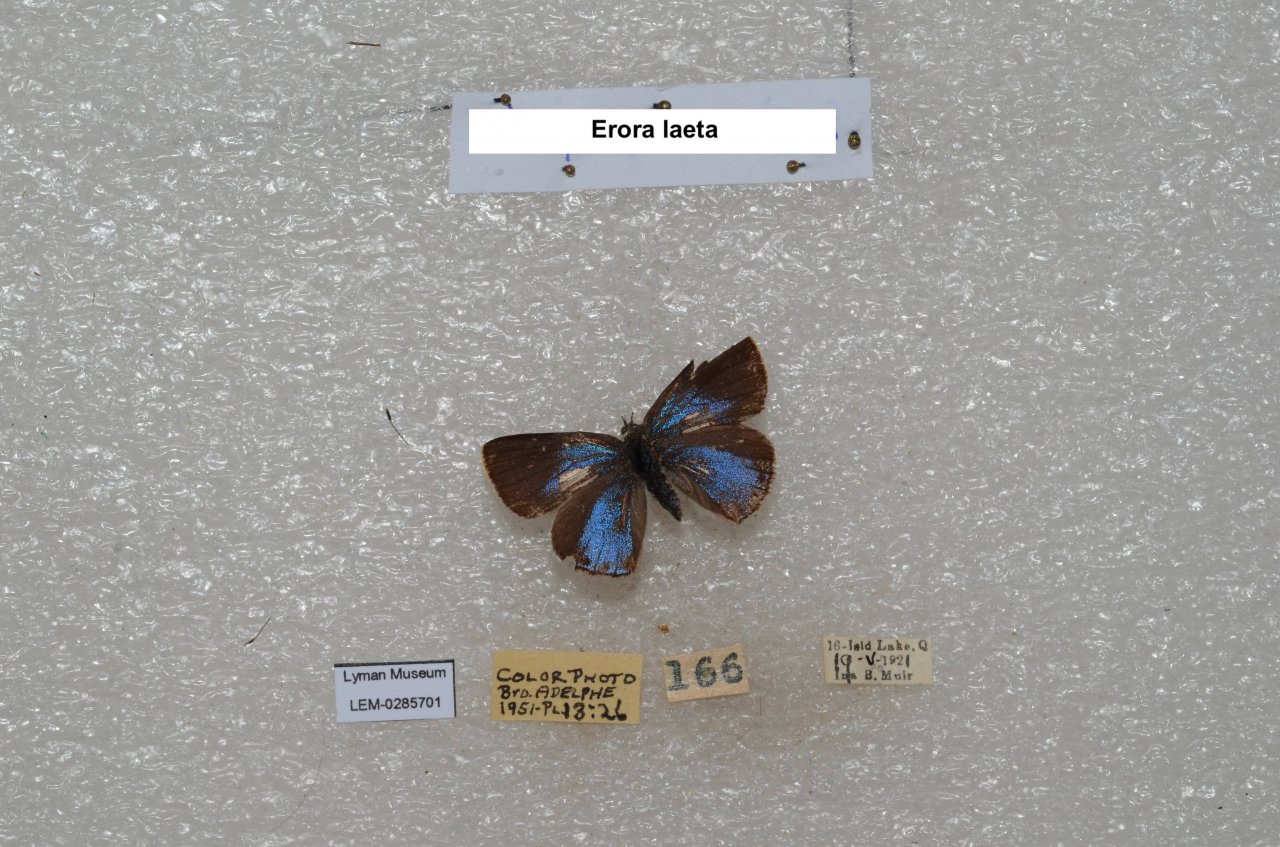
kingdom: Animalia
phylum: Arthropoda
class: Insecta
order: Lepidoptera
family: Lycaenidae
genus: Erora
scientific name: Erora laeta
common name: Early Hairstreak
